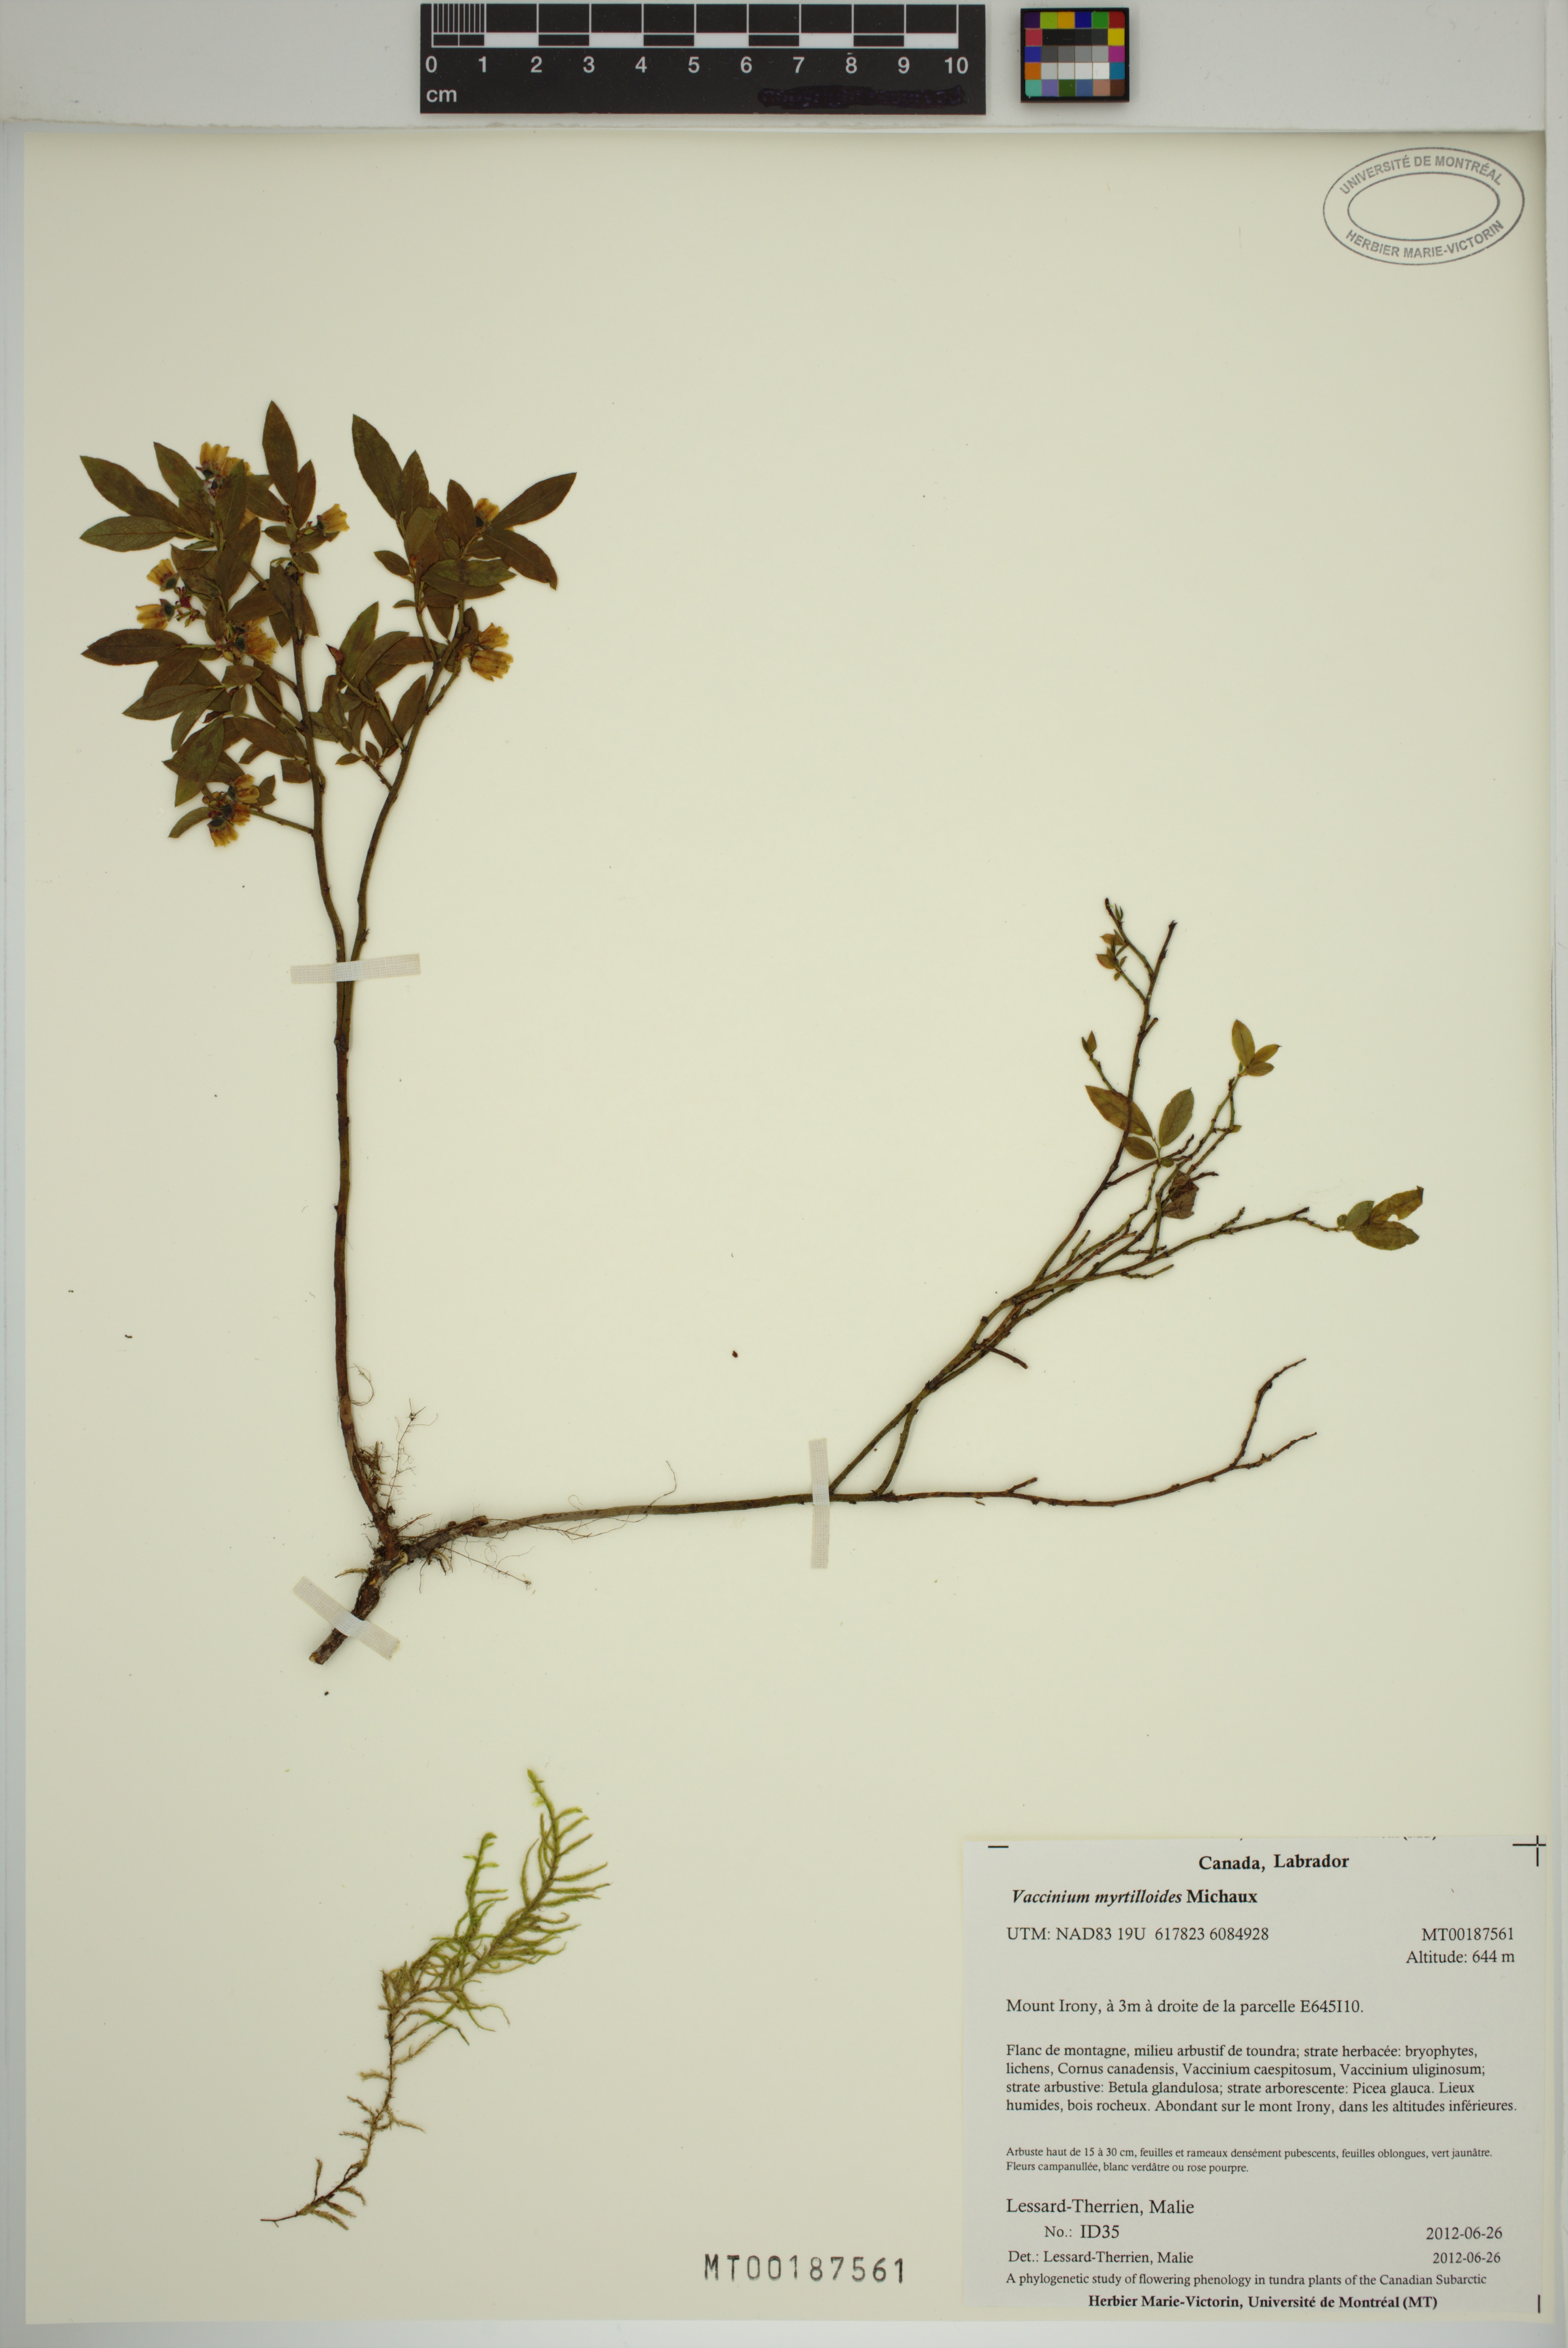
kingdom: Plantae
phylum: Tracheophyta
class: Magnoliopsida
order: Ericales
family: Ericaceae
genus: Vaccinium
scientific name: Vaccinium myrtilloides
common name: Canada blueberry
